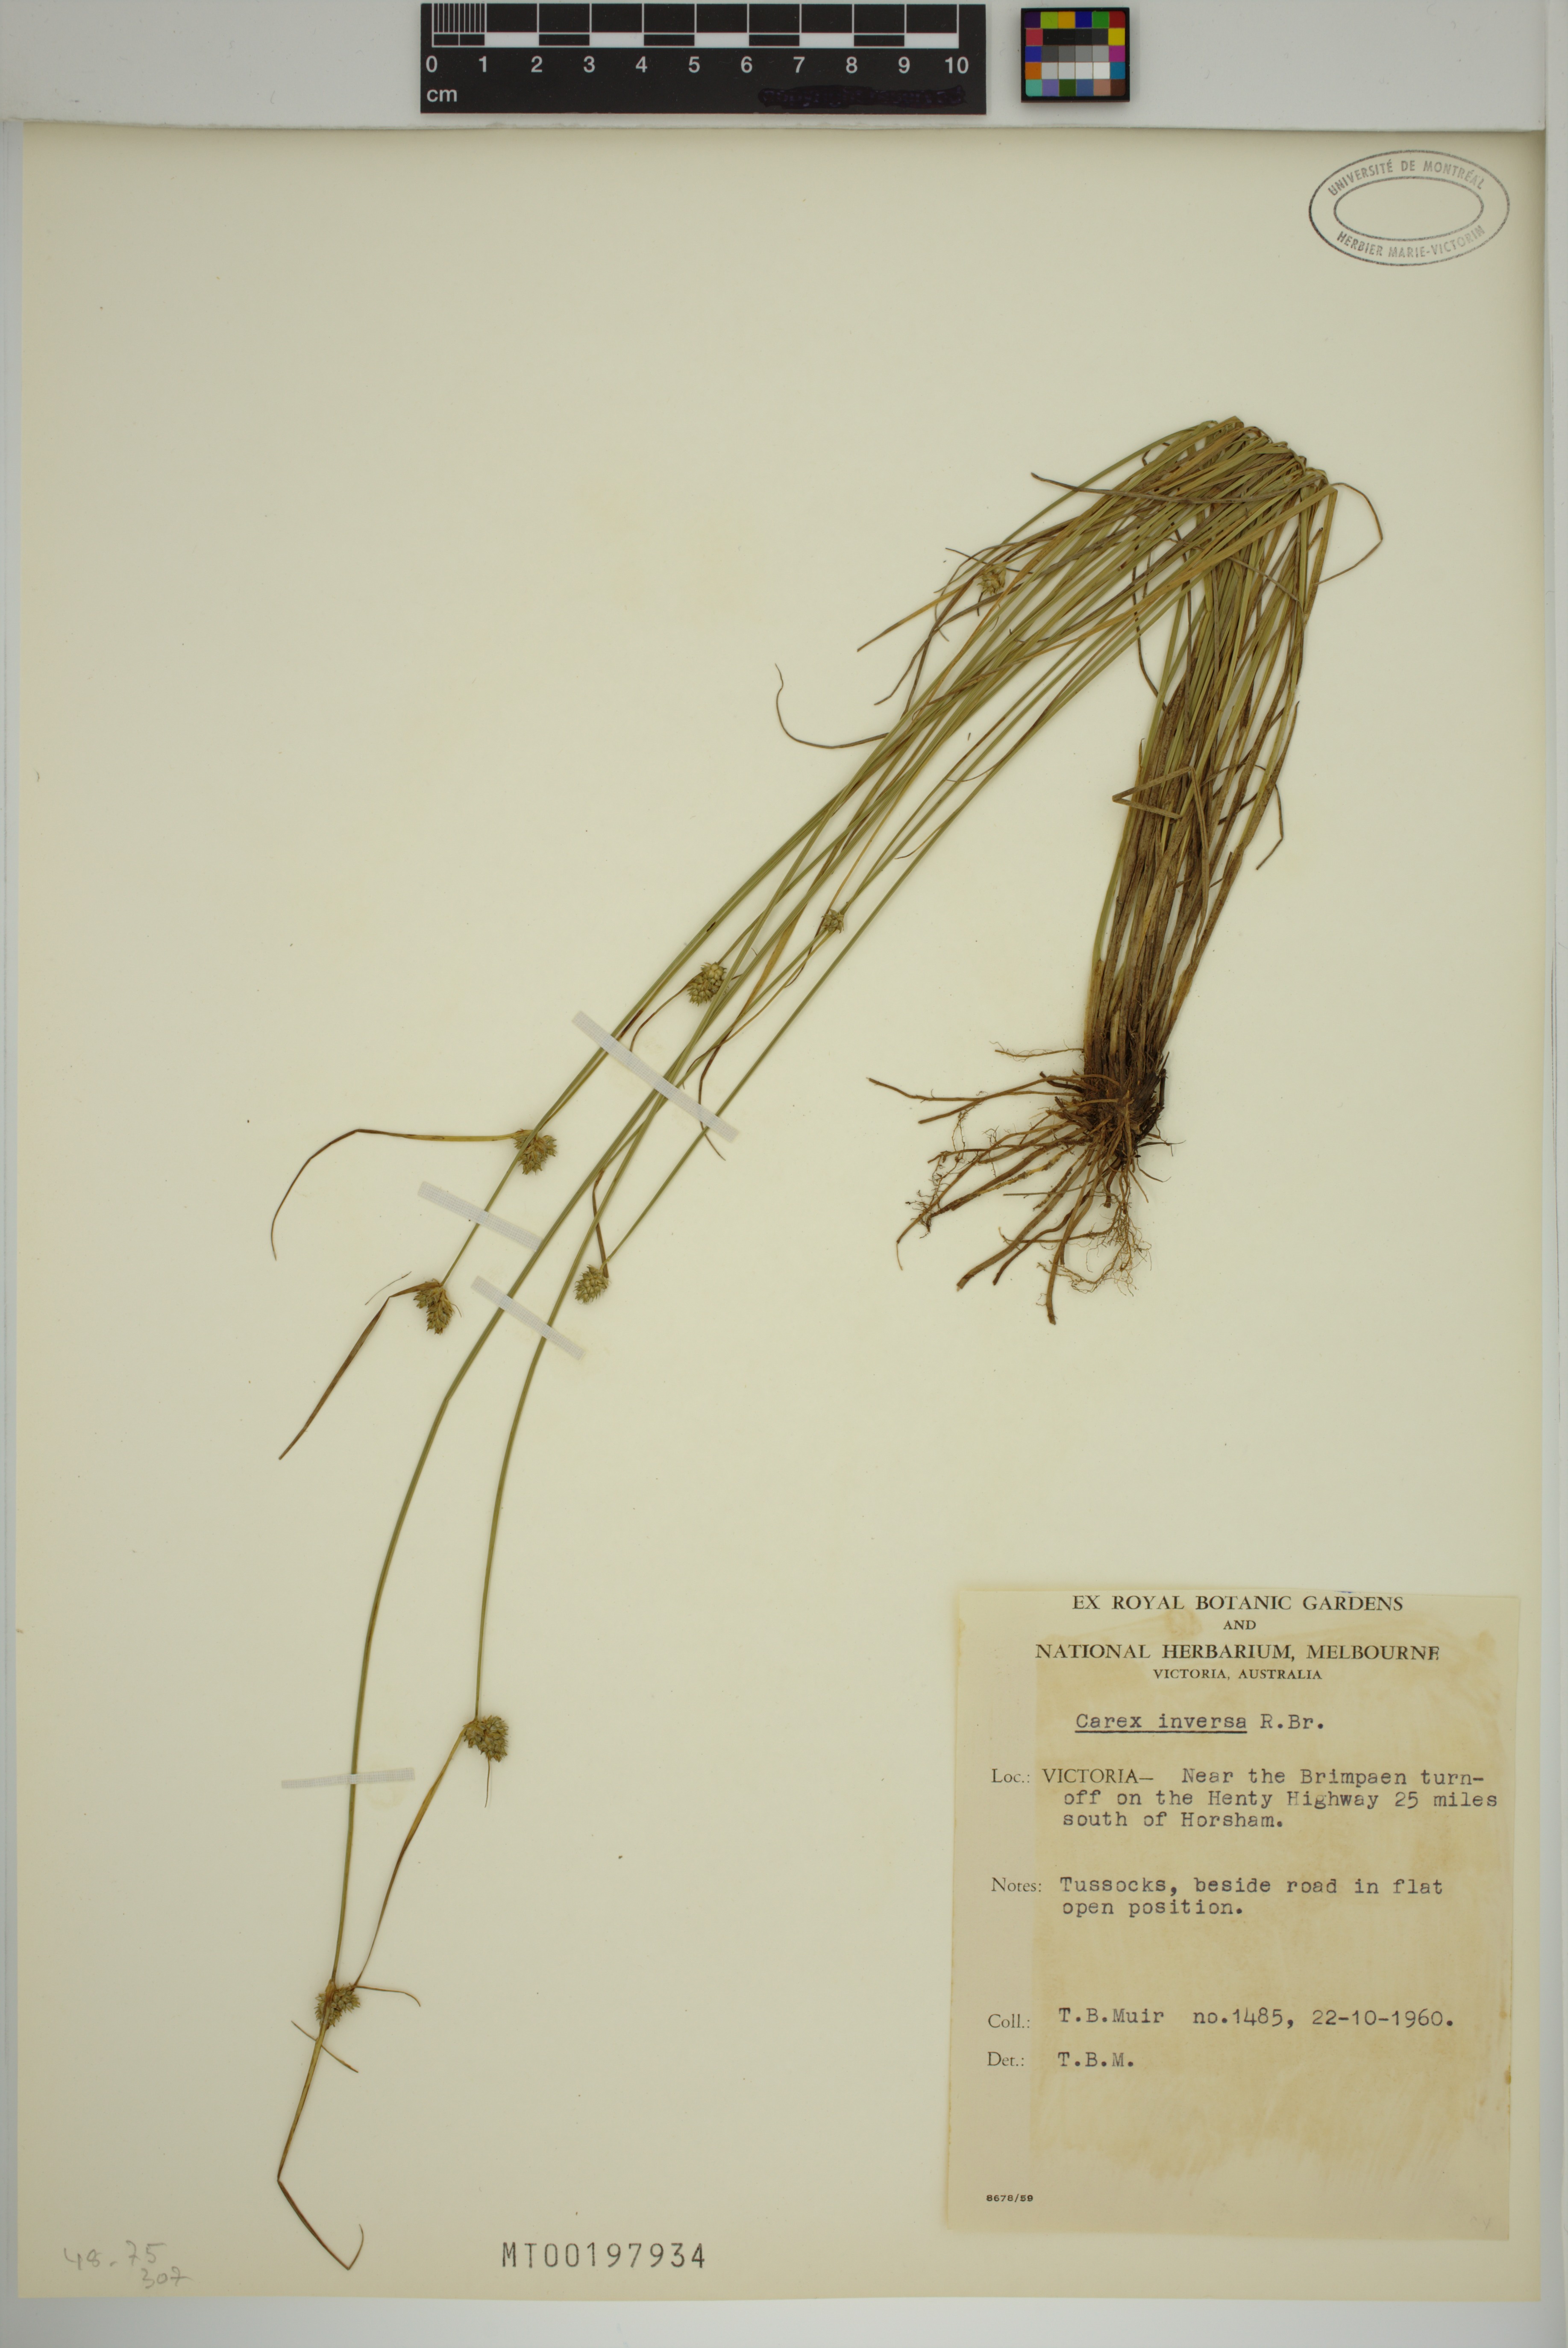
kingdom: Plantae
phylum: Tracheophyta
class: Liliopsida
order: Poales
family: Cyperaceae
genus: Carex
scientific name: Carex inversa
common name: Knob sedge
